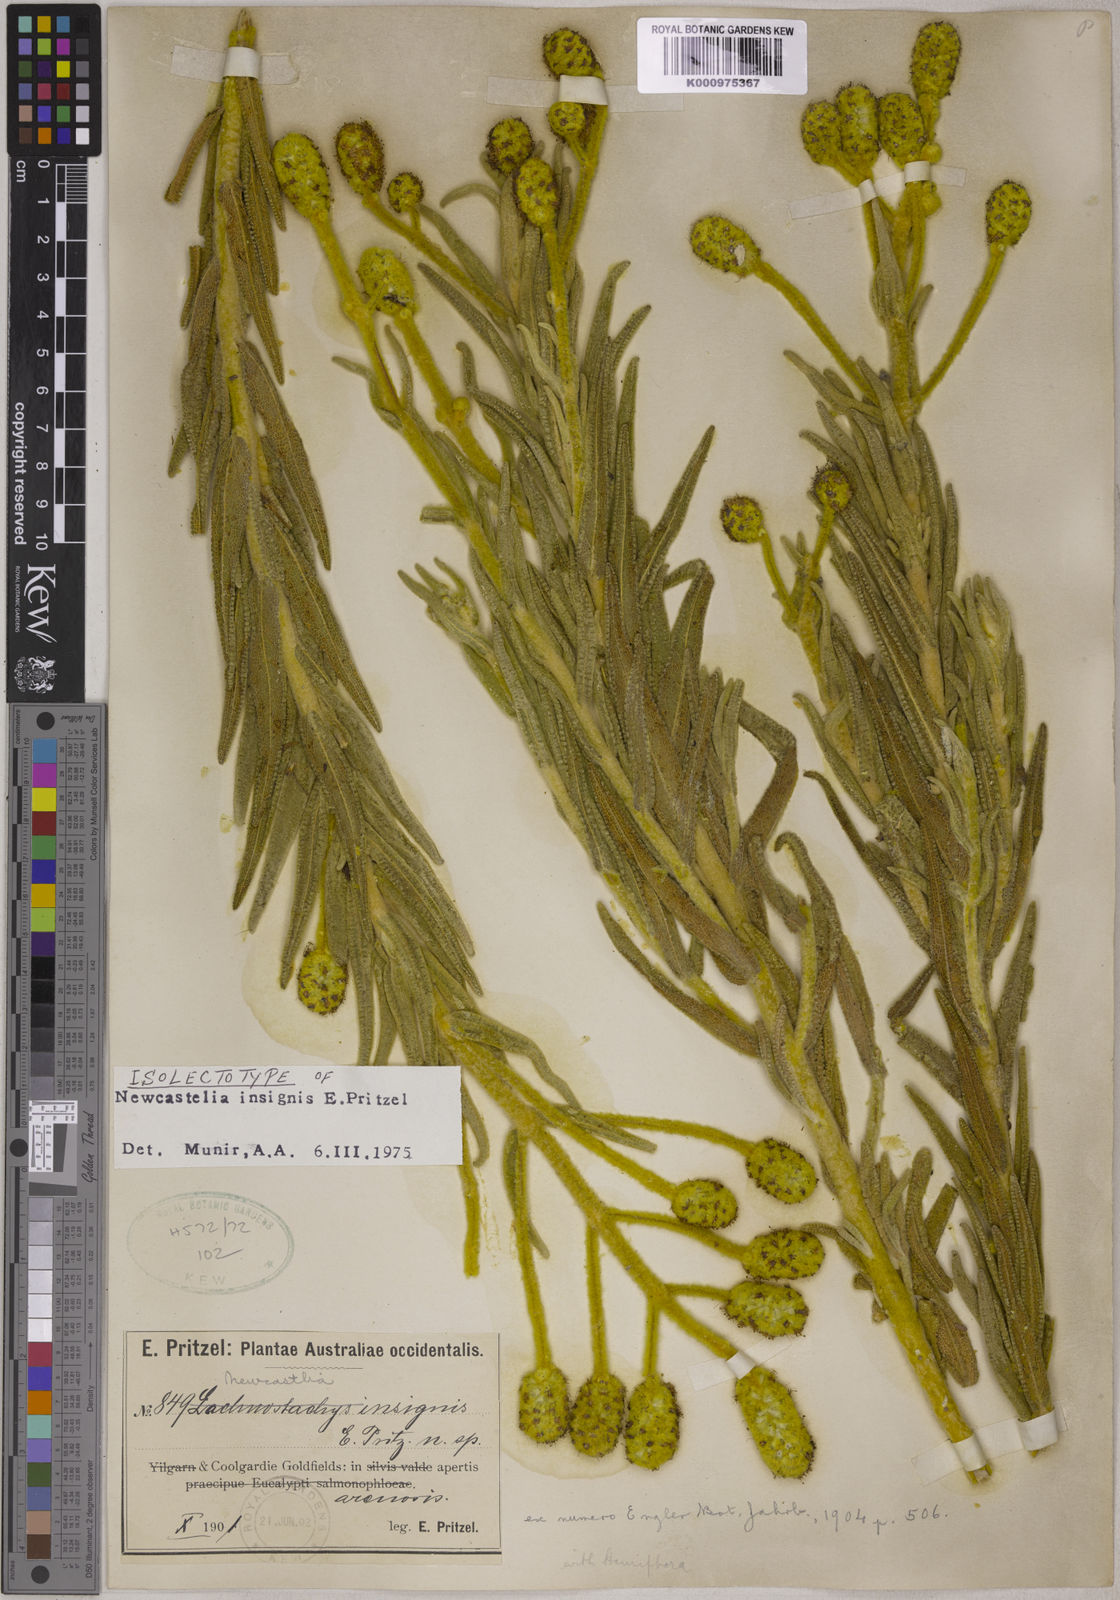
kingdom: Plantae
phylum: Tracheophyta
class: Magnoliopsida
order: Lamiales
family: Lamiaceae
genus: Apatelantha
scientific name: Apatelantha insignis
